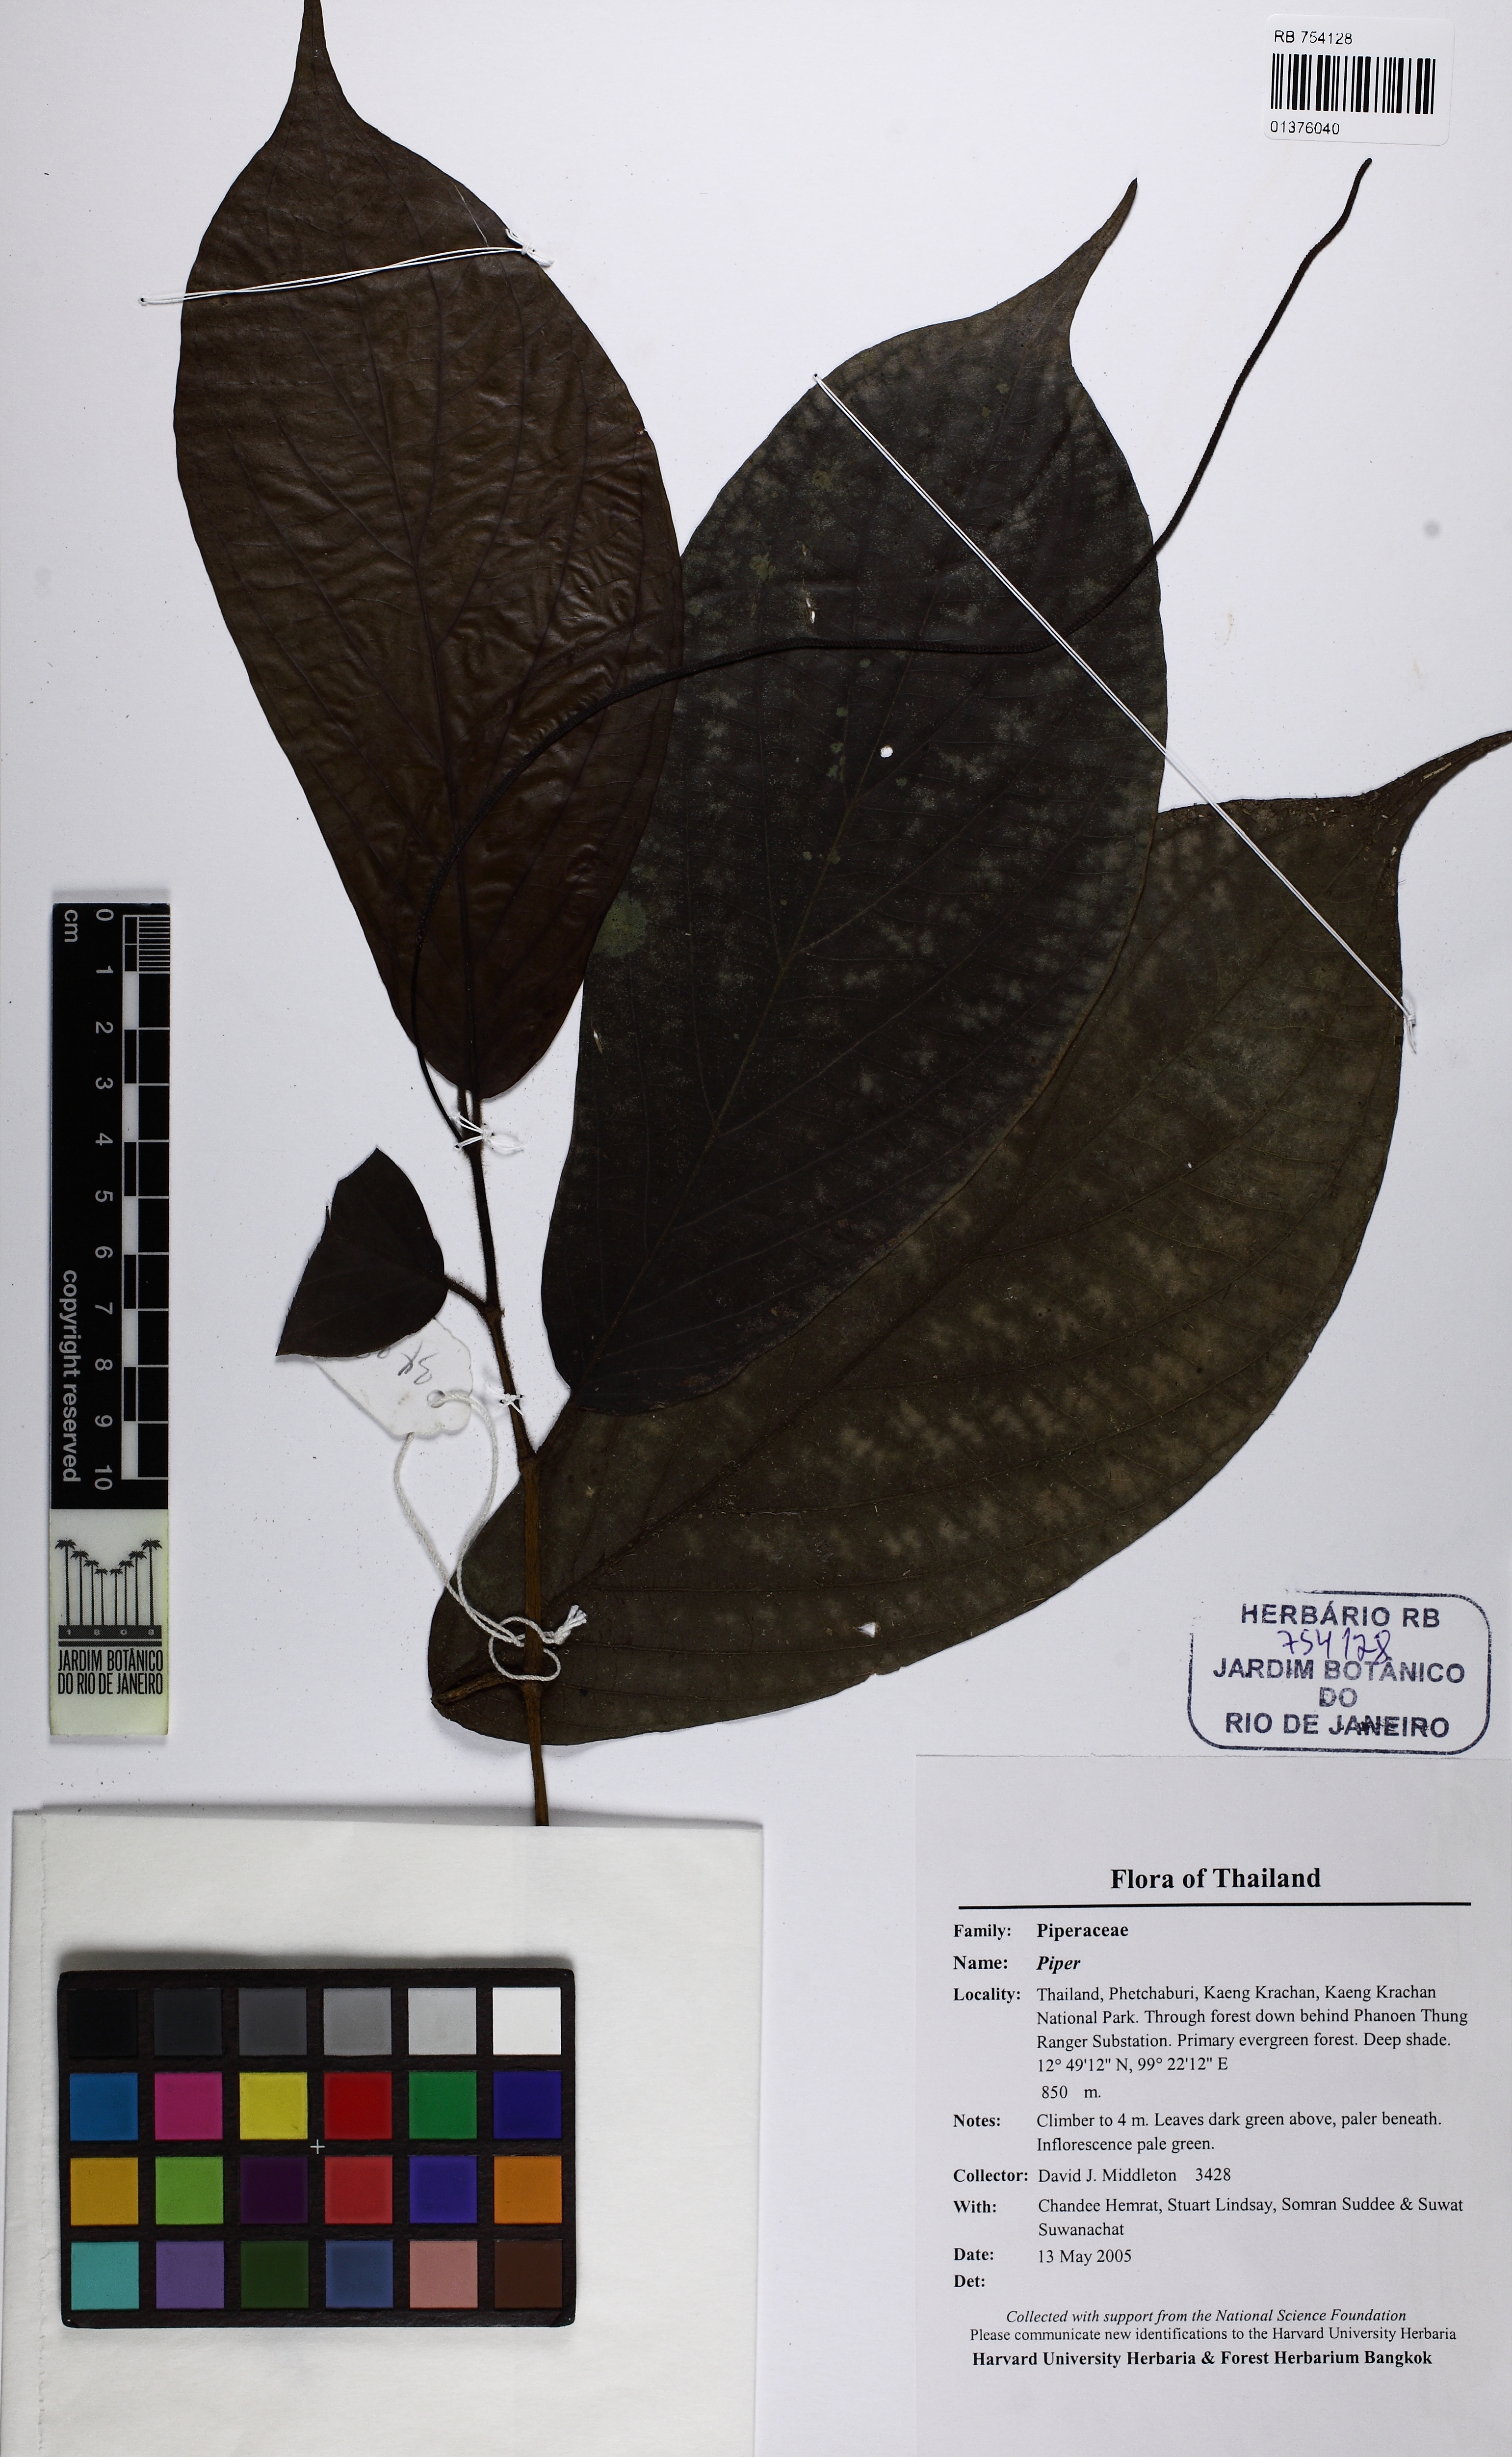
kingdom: Plantae
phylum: Tracheophyta
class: Magnoliopsida
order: Piperales
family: Piperaceae
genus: Piper
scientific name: Piper
